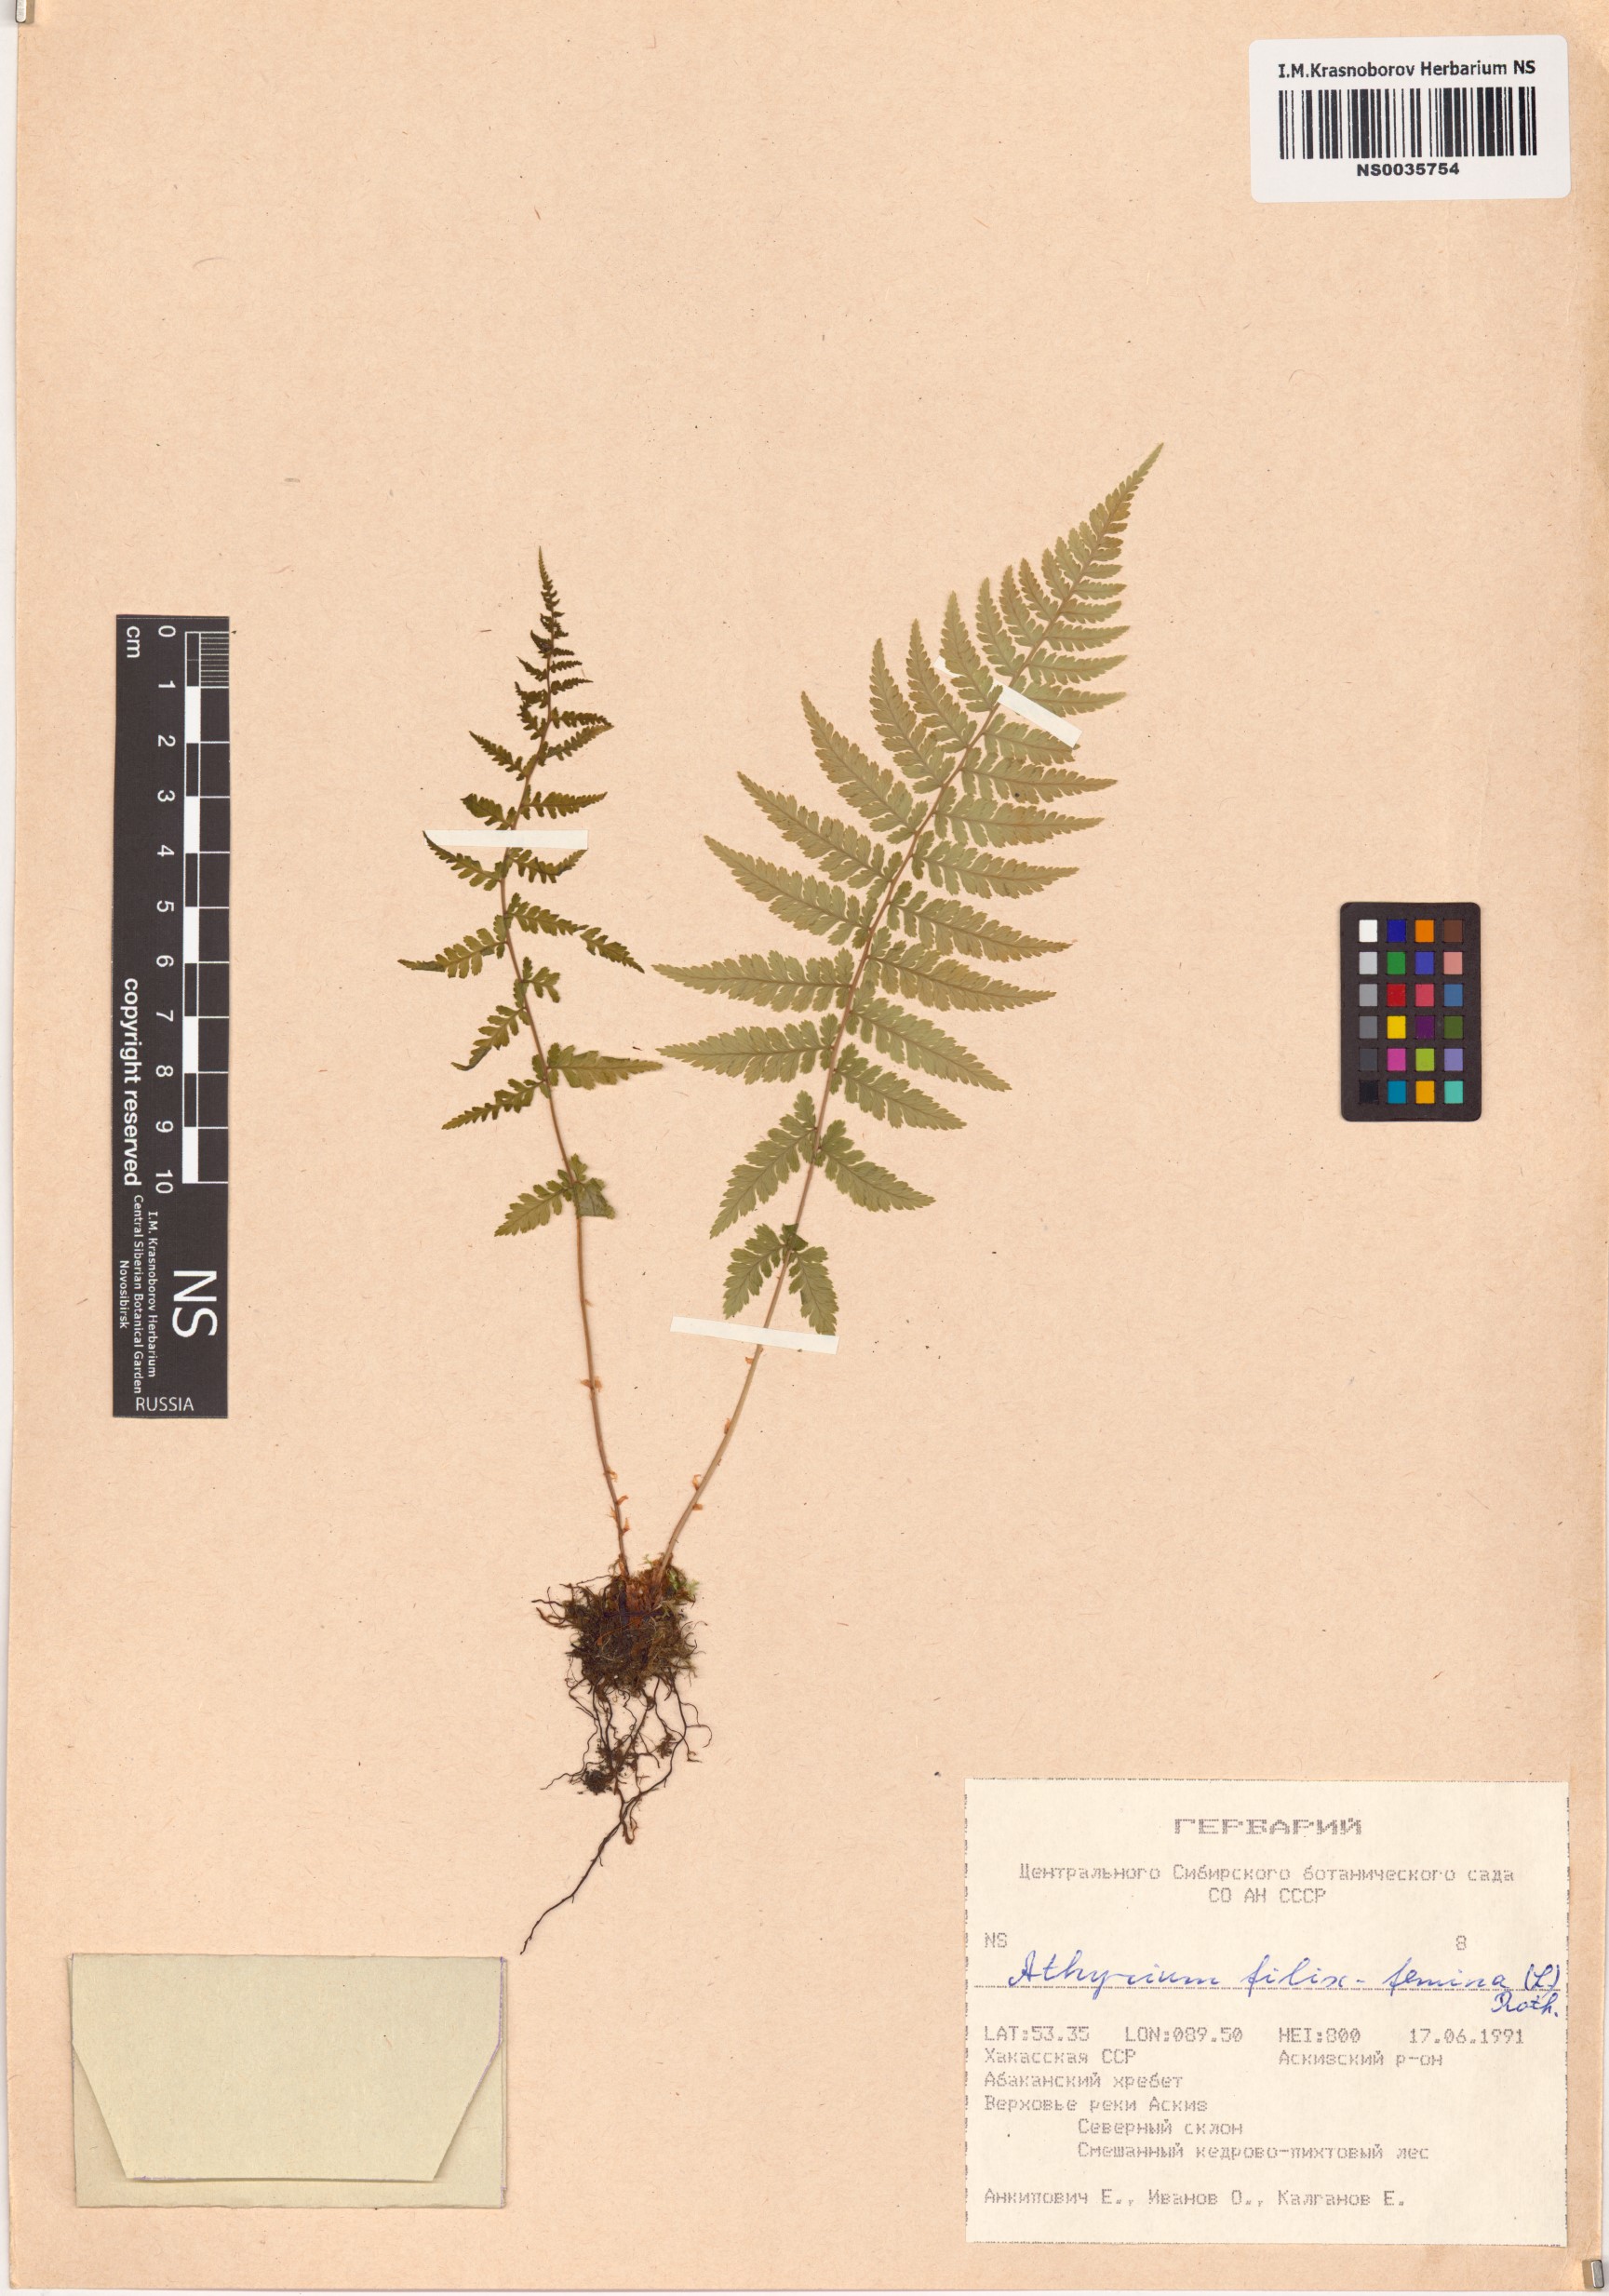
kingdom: Plantae
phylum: Tracheophyta
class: Polypodiopsida
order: Polypodiales
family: Athyriaceae
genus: Athyrium
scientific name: Athyrium filix-femina
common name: Lady fern
